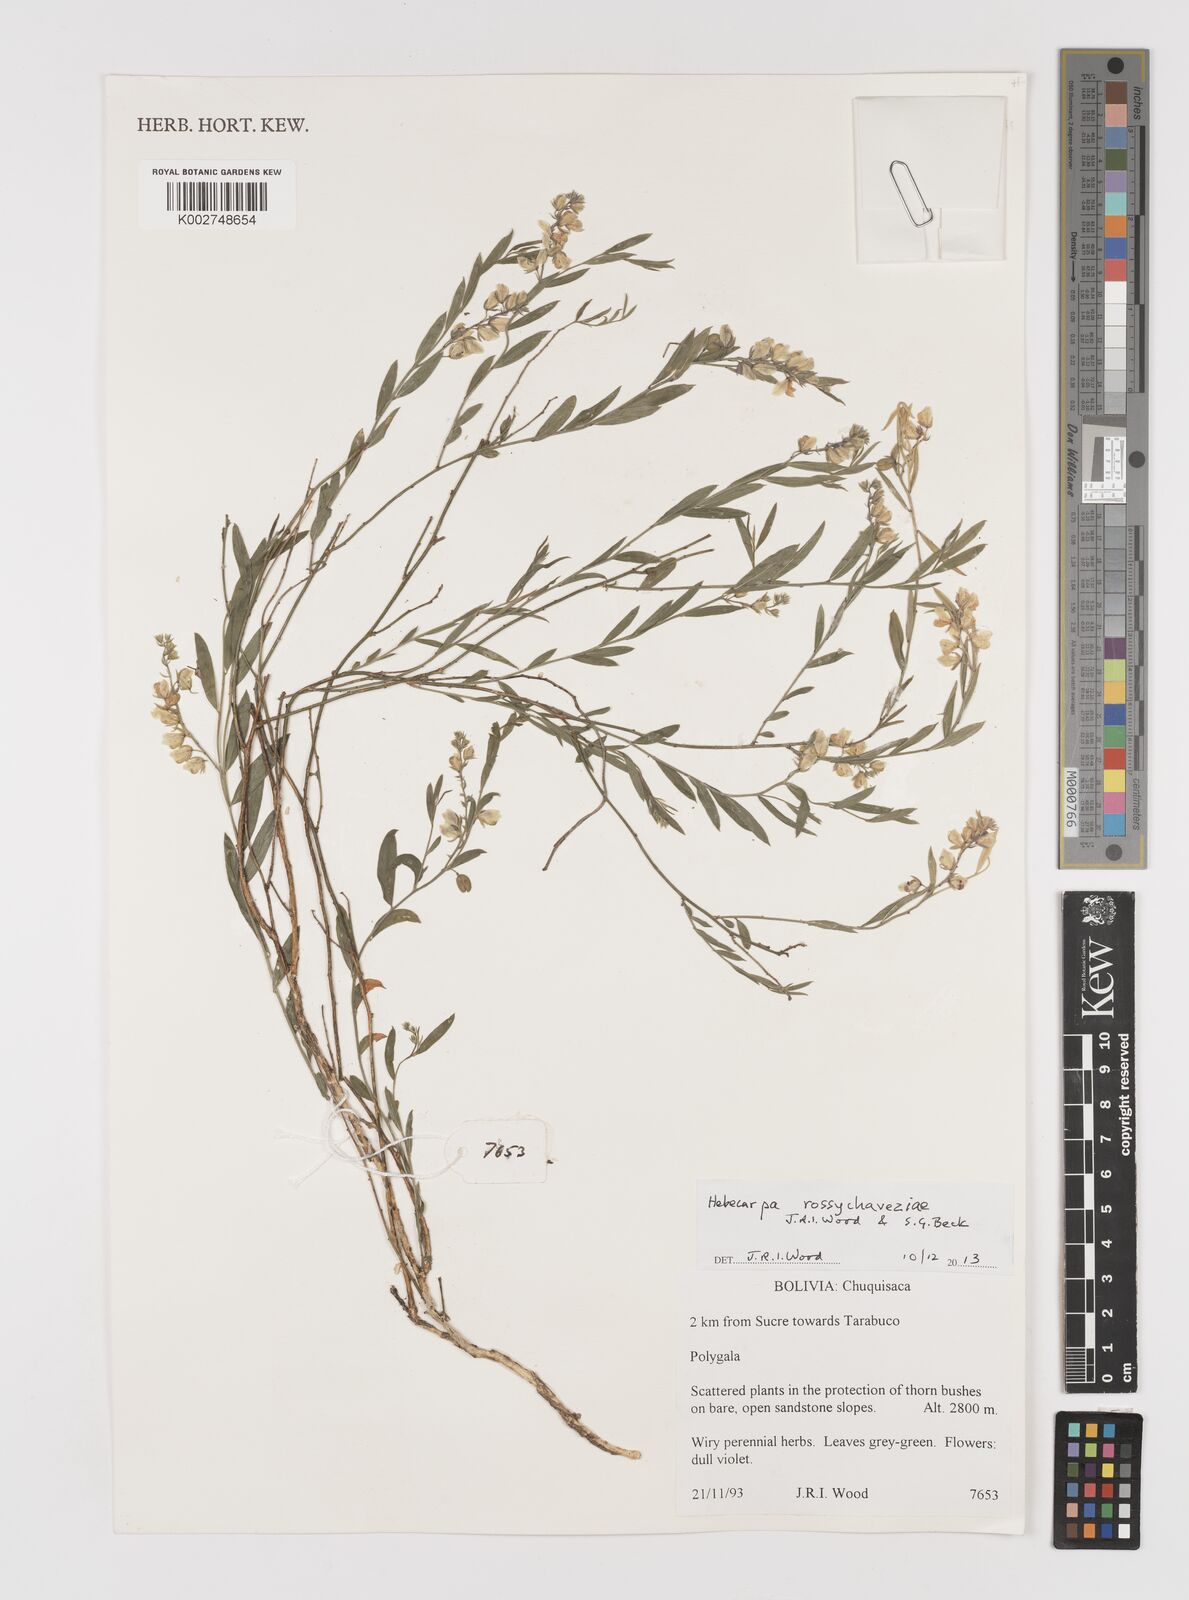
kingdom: Plantae
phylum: Tracheophyta
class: Magnoliopsida
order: Fabales
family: Polygalaceae
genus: Hebecarpa
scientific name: Hebecarpa rossychaveziae
